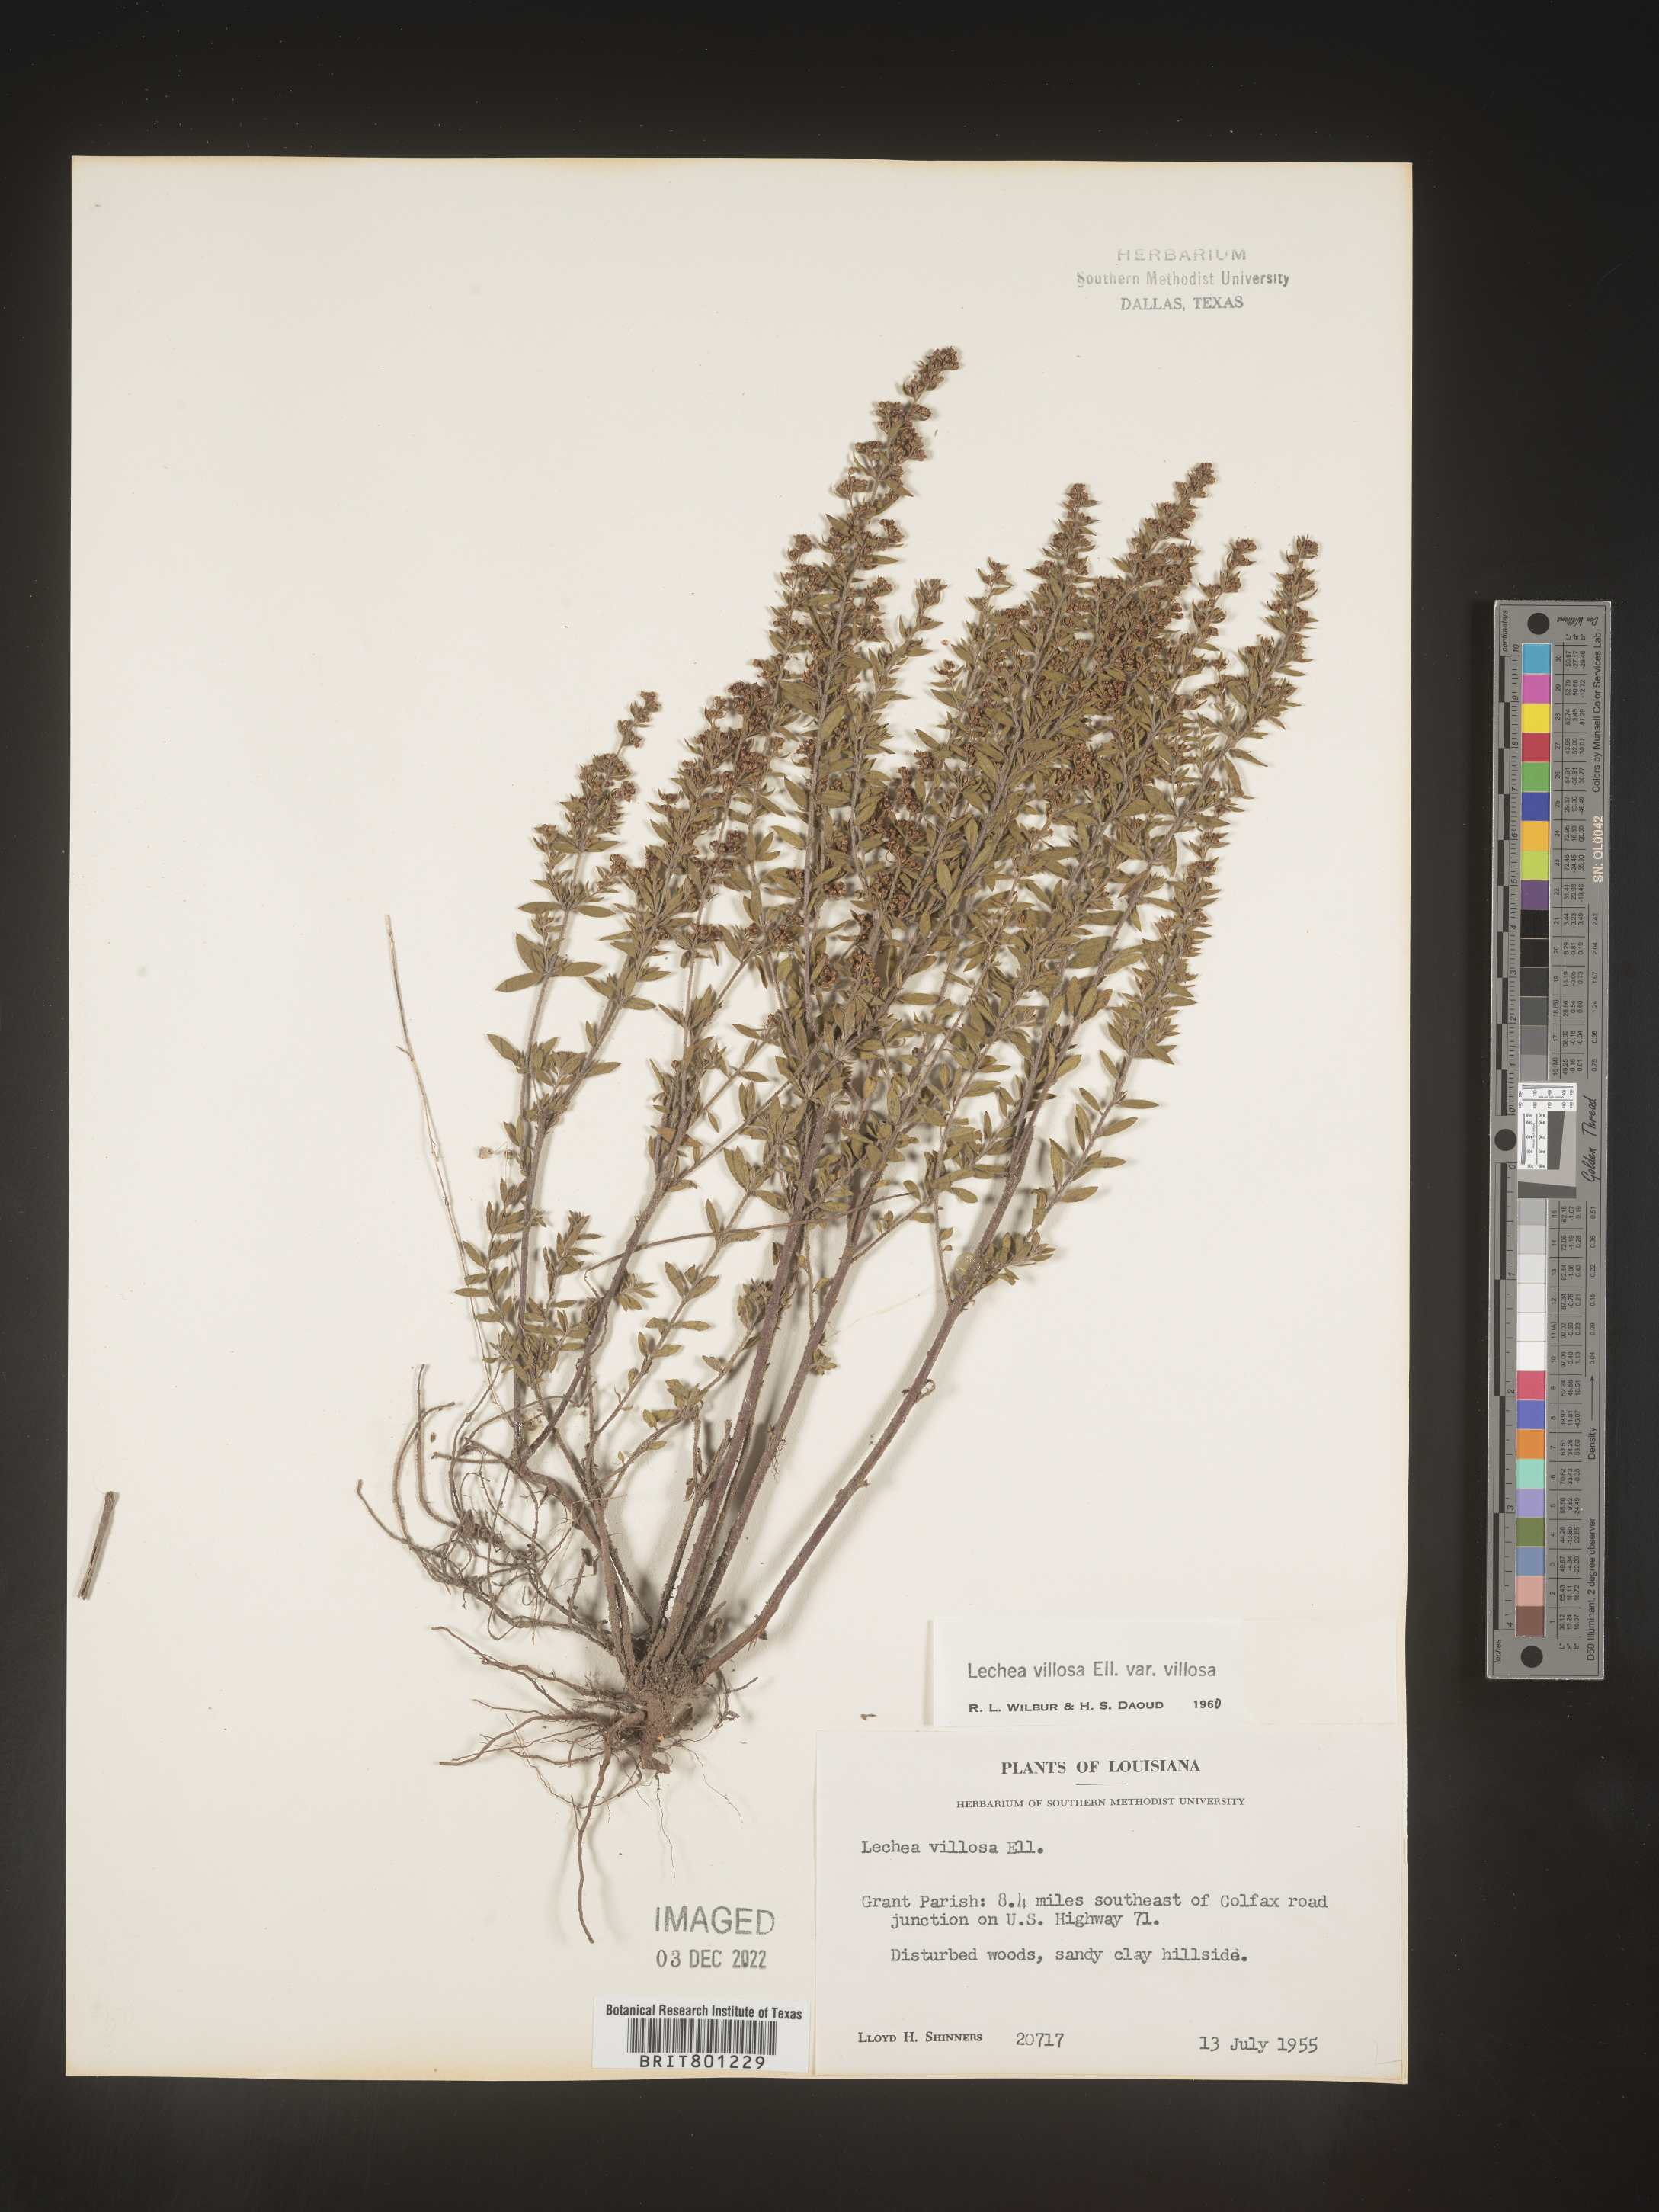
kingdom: Plantae
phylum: Tracheophyta
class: Magnoliopsida
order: Malvales
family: Cistaceae
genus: Lechea
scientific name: Lechea mucronata
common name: Hairy pinweed
